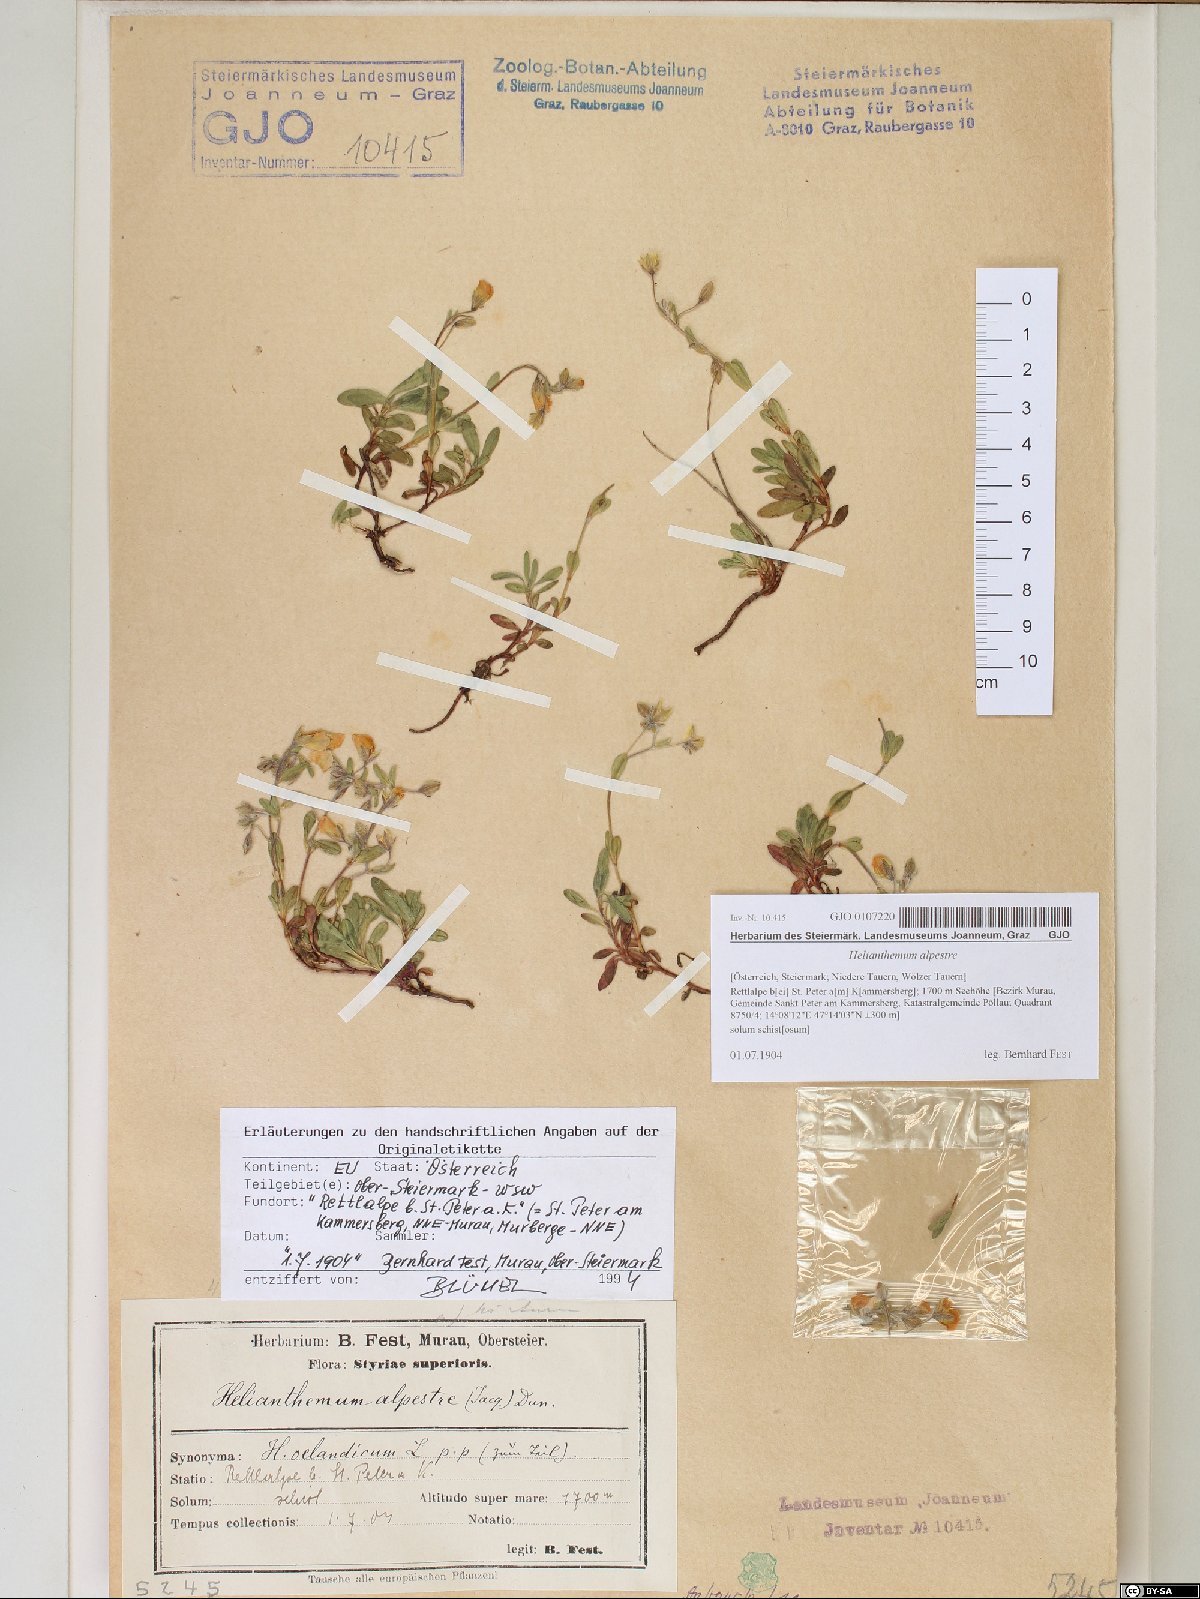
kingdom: Plantae
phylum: Tracheophyta
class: Magnoliopsida
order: Malvales
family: Cistaceae
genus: Helianthemum
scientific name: Helianthemum alpestre
